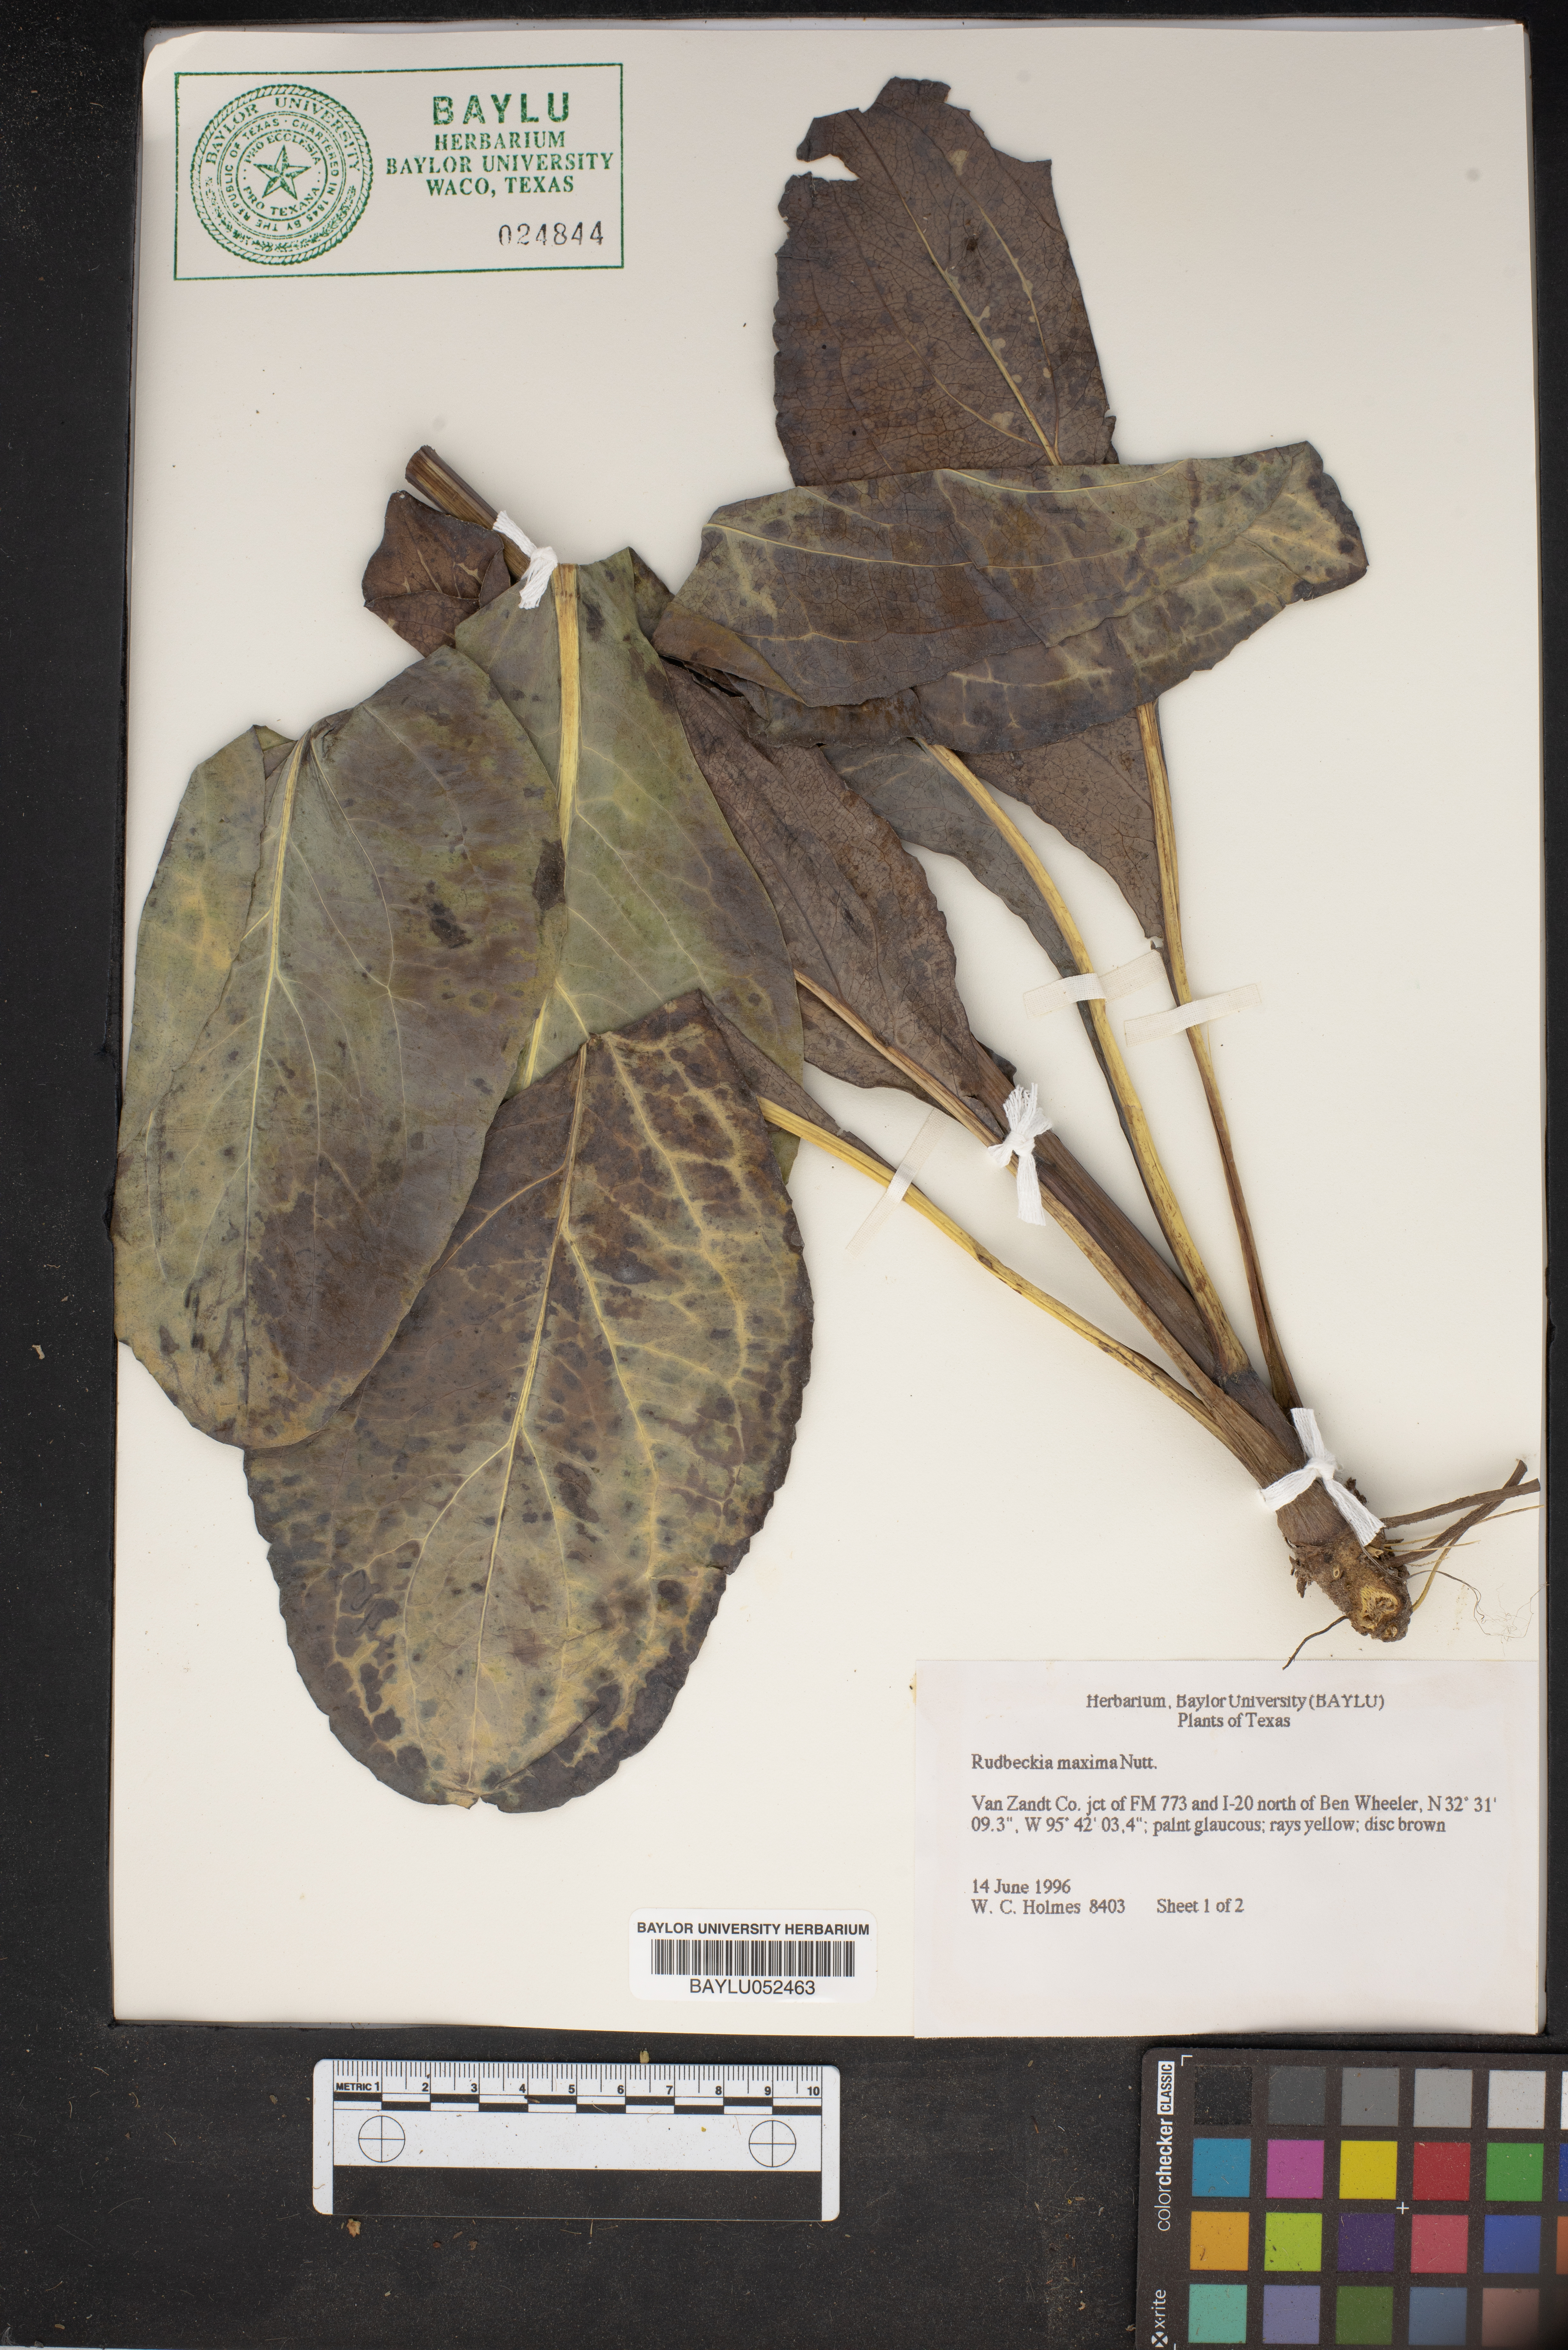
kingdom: Plantae
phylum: Tracheophyta
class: Magnoliopsida
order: Asterales
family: Asteraceae
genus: Rudbeckia
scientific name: Rudbeckia maxima
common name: Cabbage coneflower
